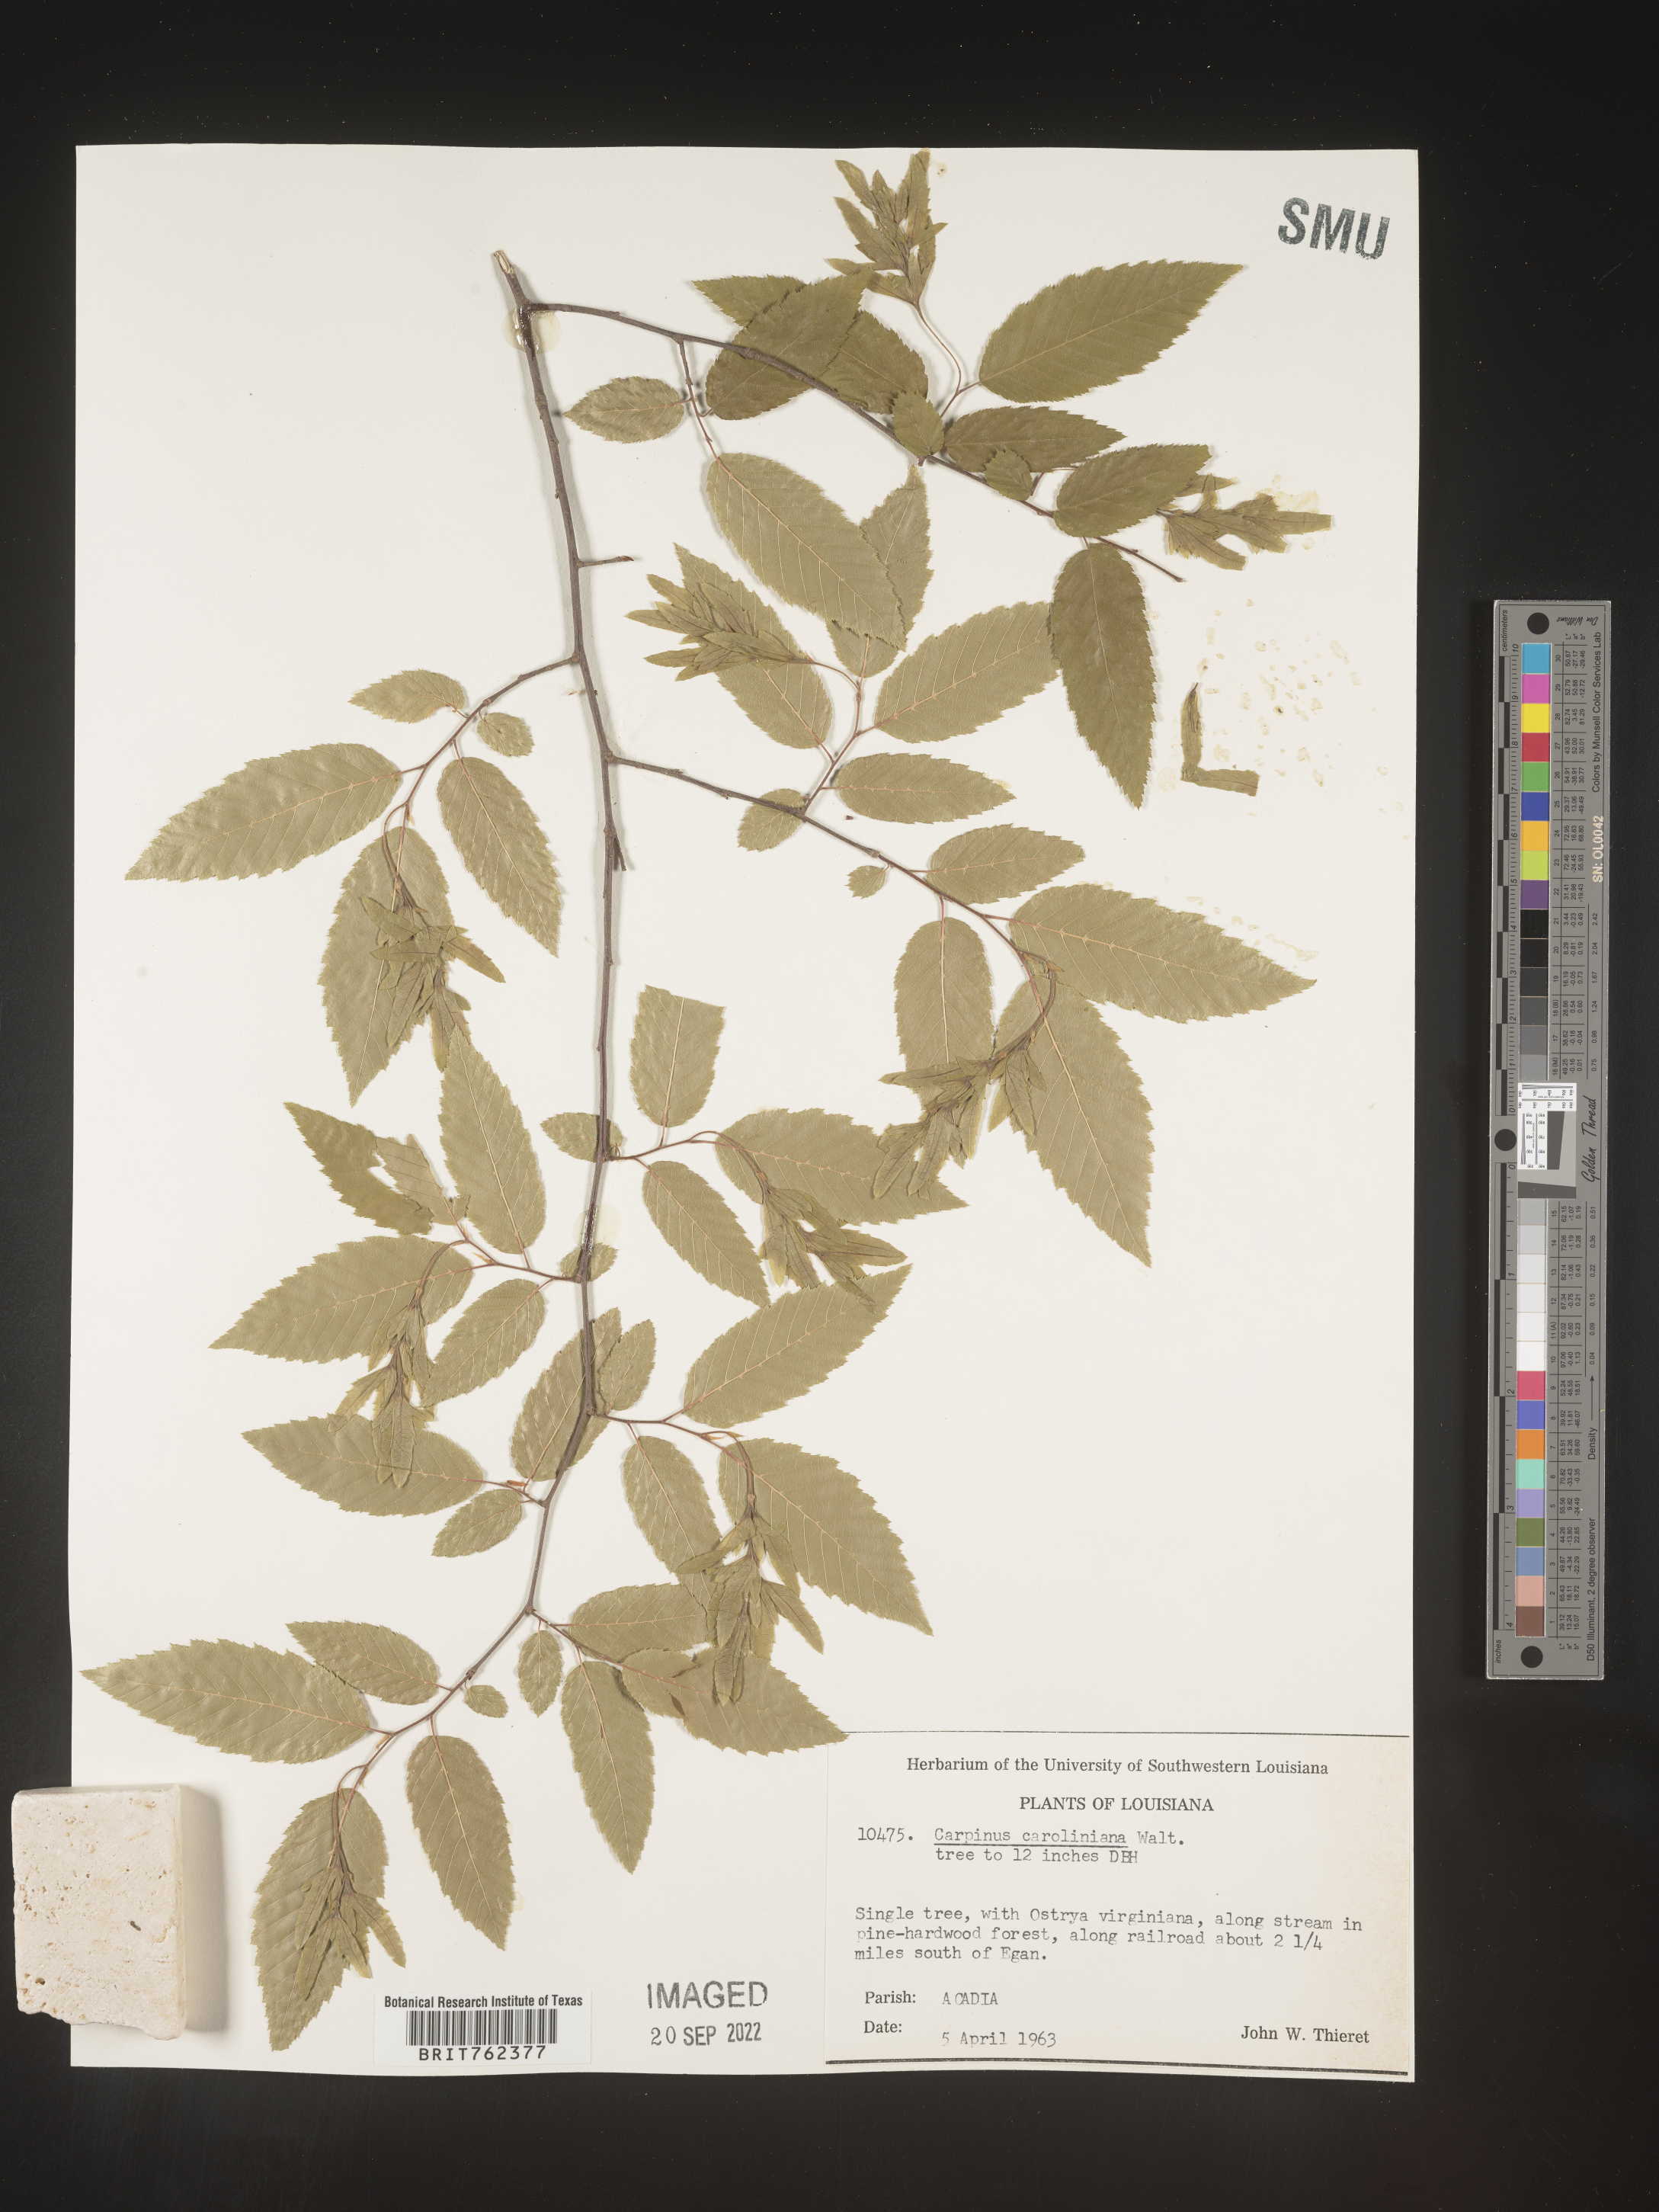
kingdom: Plantae
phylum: Tracheophyta
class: Magnoliopsida
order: Fagales
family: Betulaceae
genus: Carpinus
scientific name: Carpinus caroliniana
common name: American hornbeam
